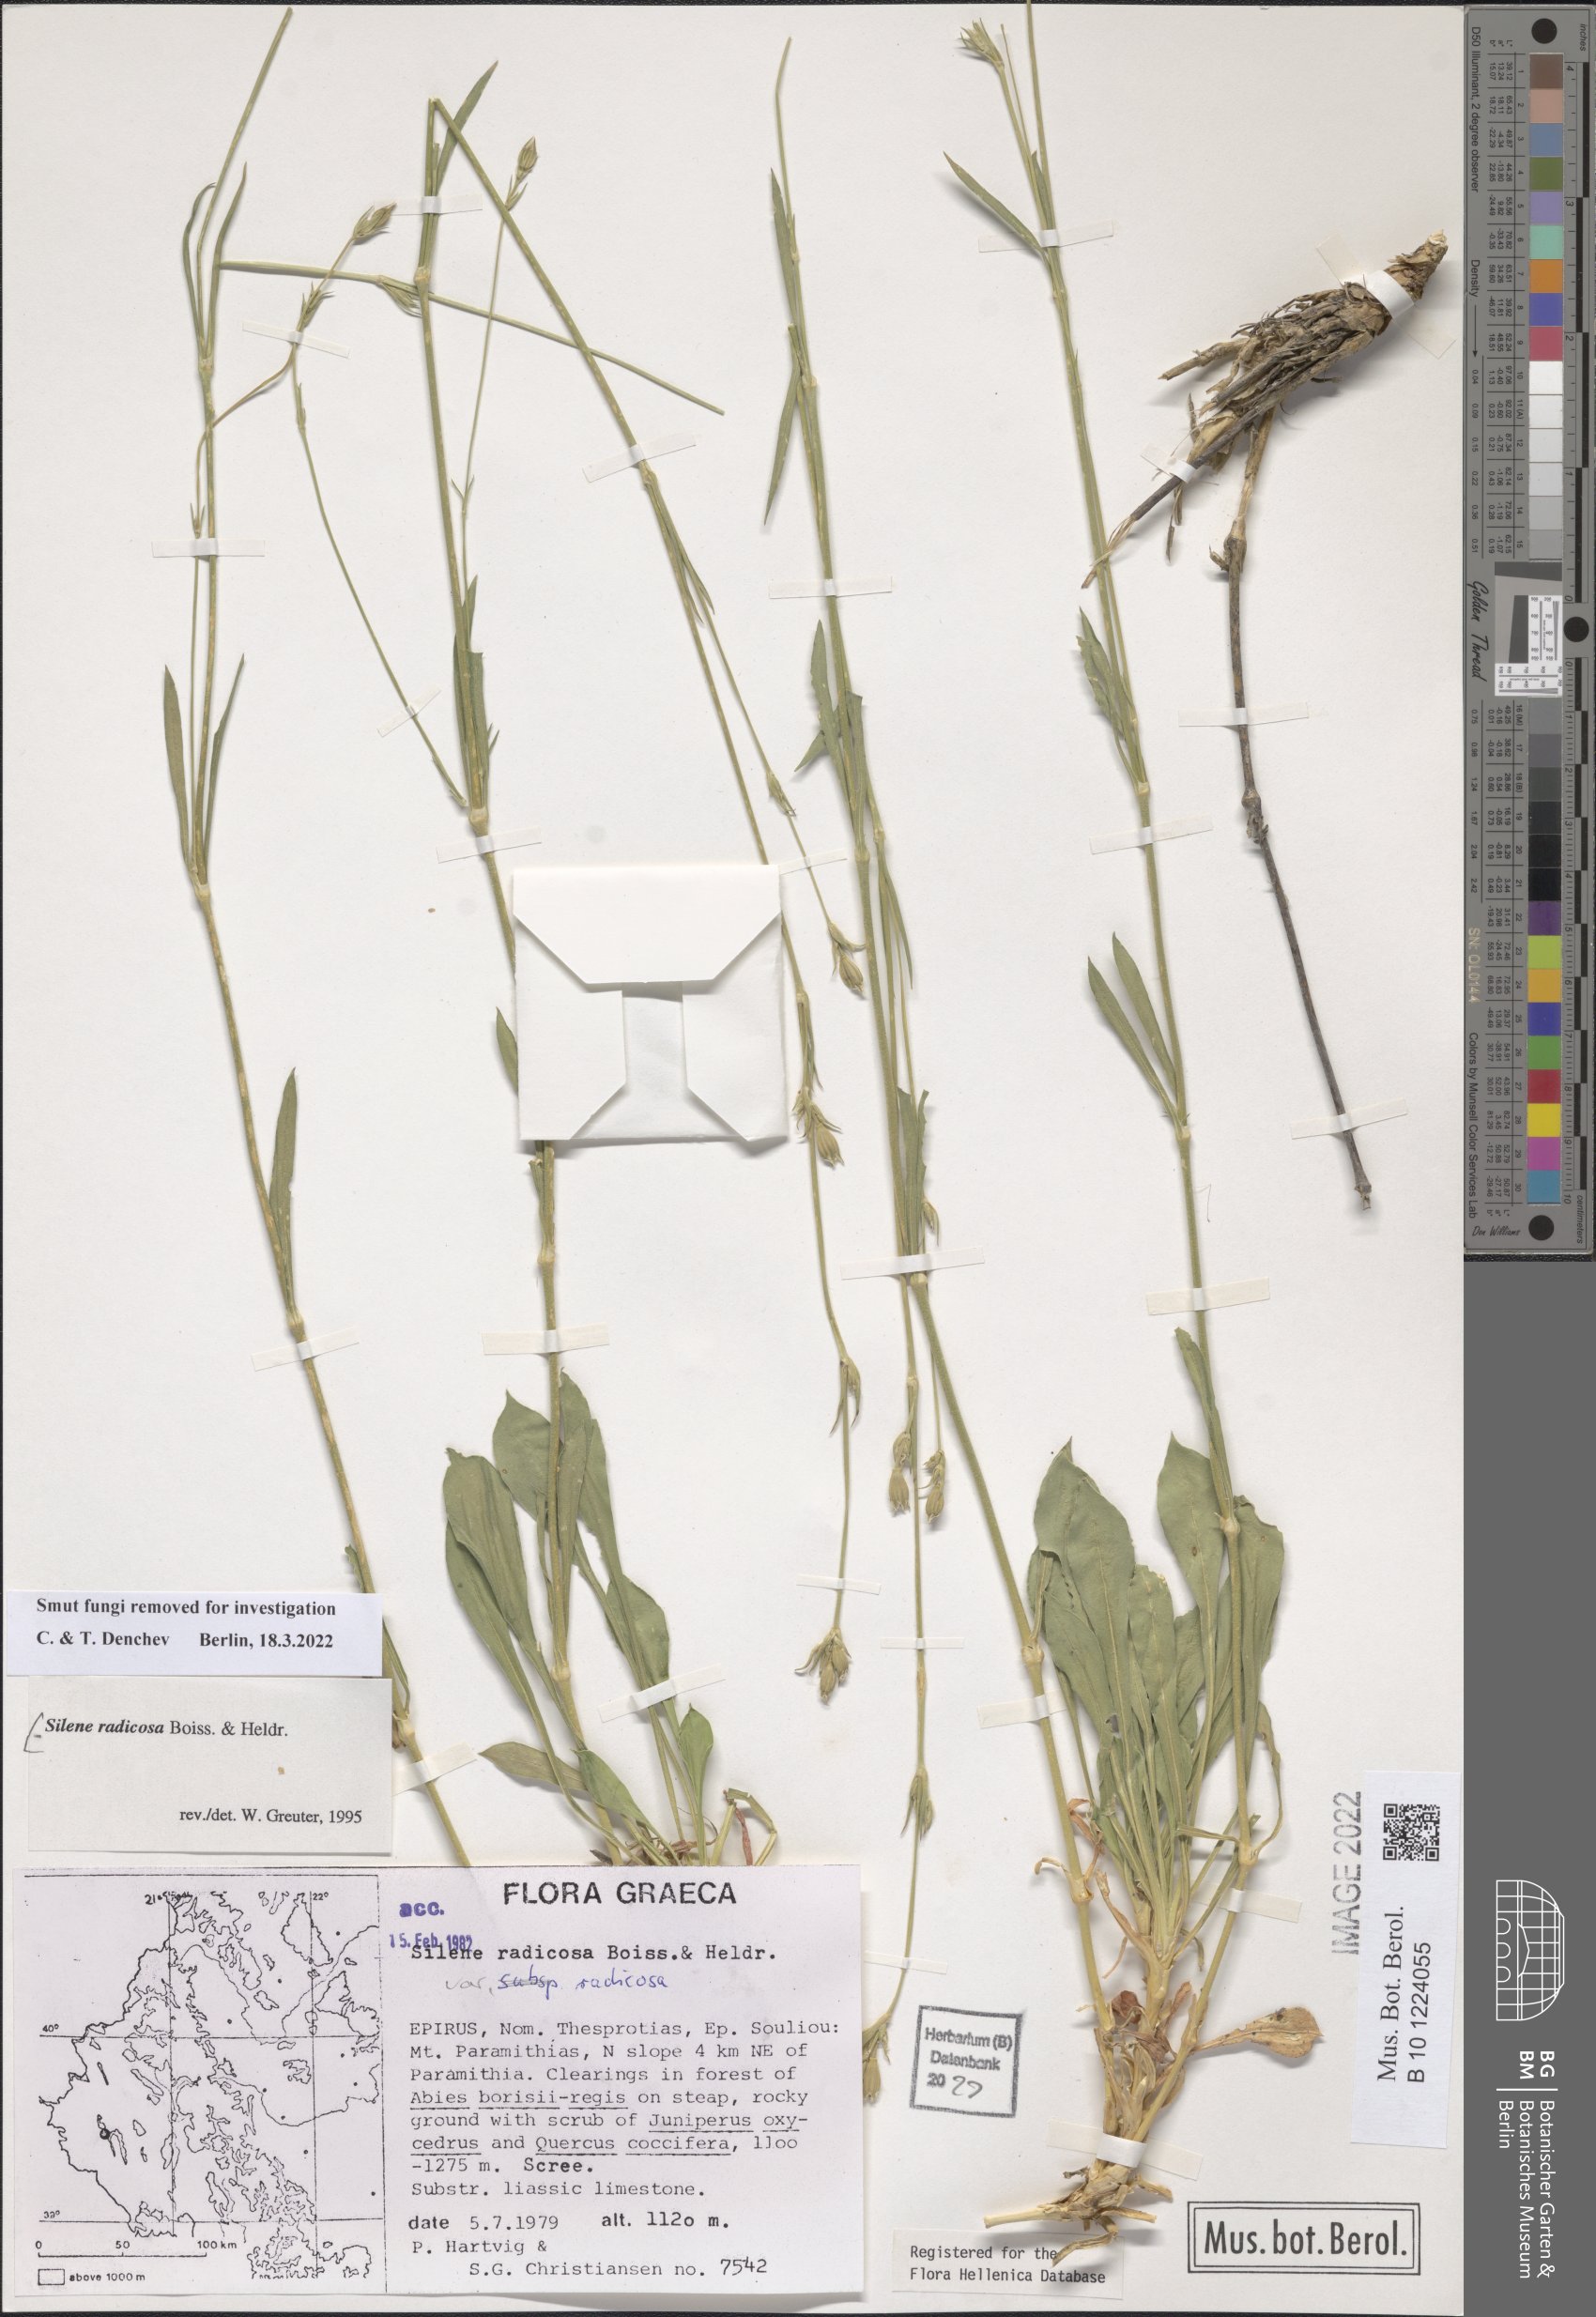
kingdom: Plantae
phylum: Tracheophyta
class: Magnoliopsida
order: Caryophyllales
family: Caryophyllaceae
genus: Silene
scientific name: Silene radicosa
